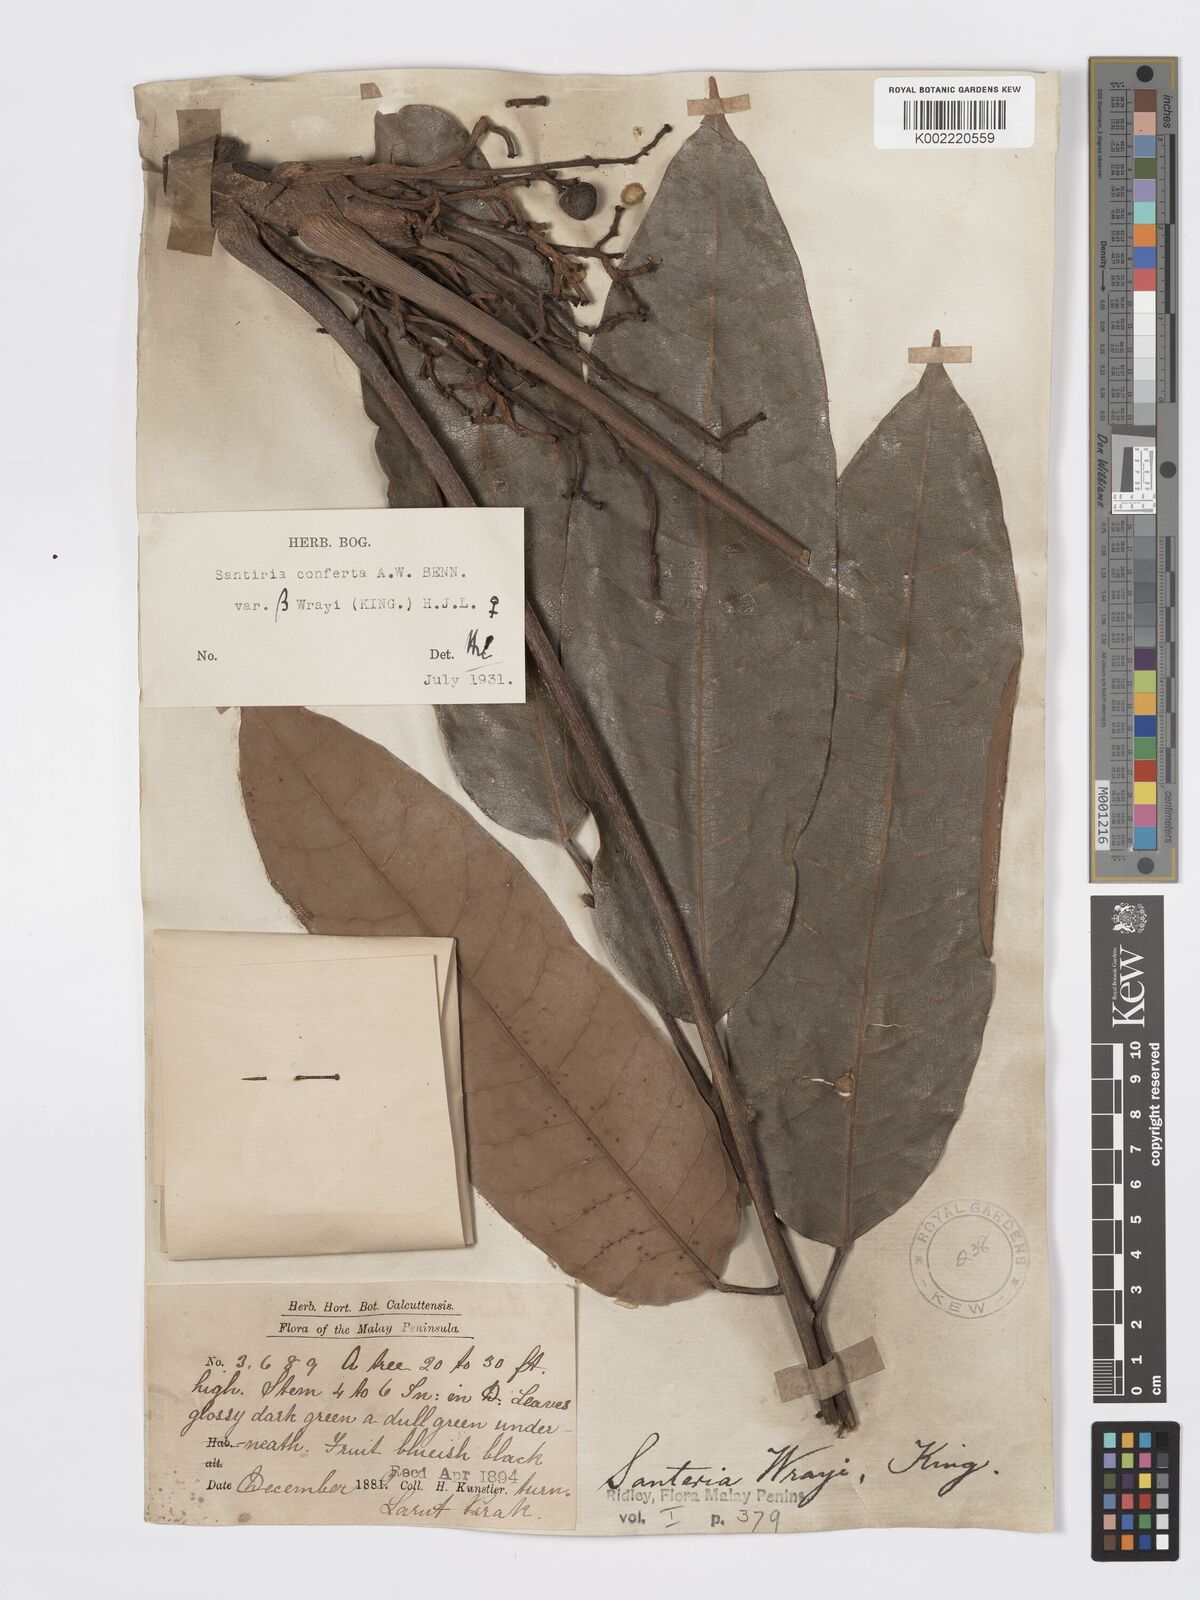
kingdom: Plantae
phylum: Tracheophyta
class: Magnoliopsida
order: Sapindales
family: Burseraceae
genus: Santiria
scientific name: Santiria conferta
